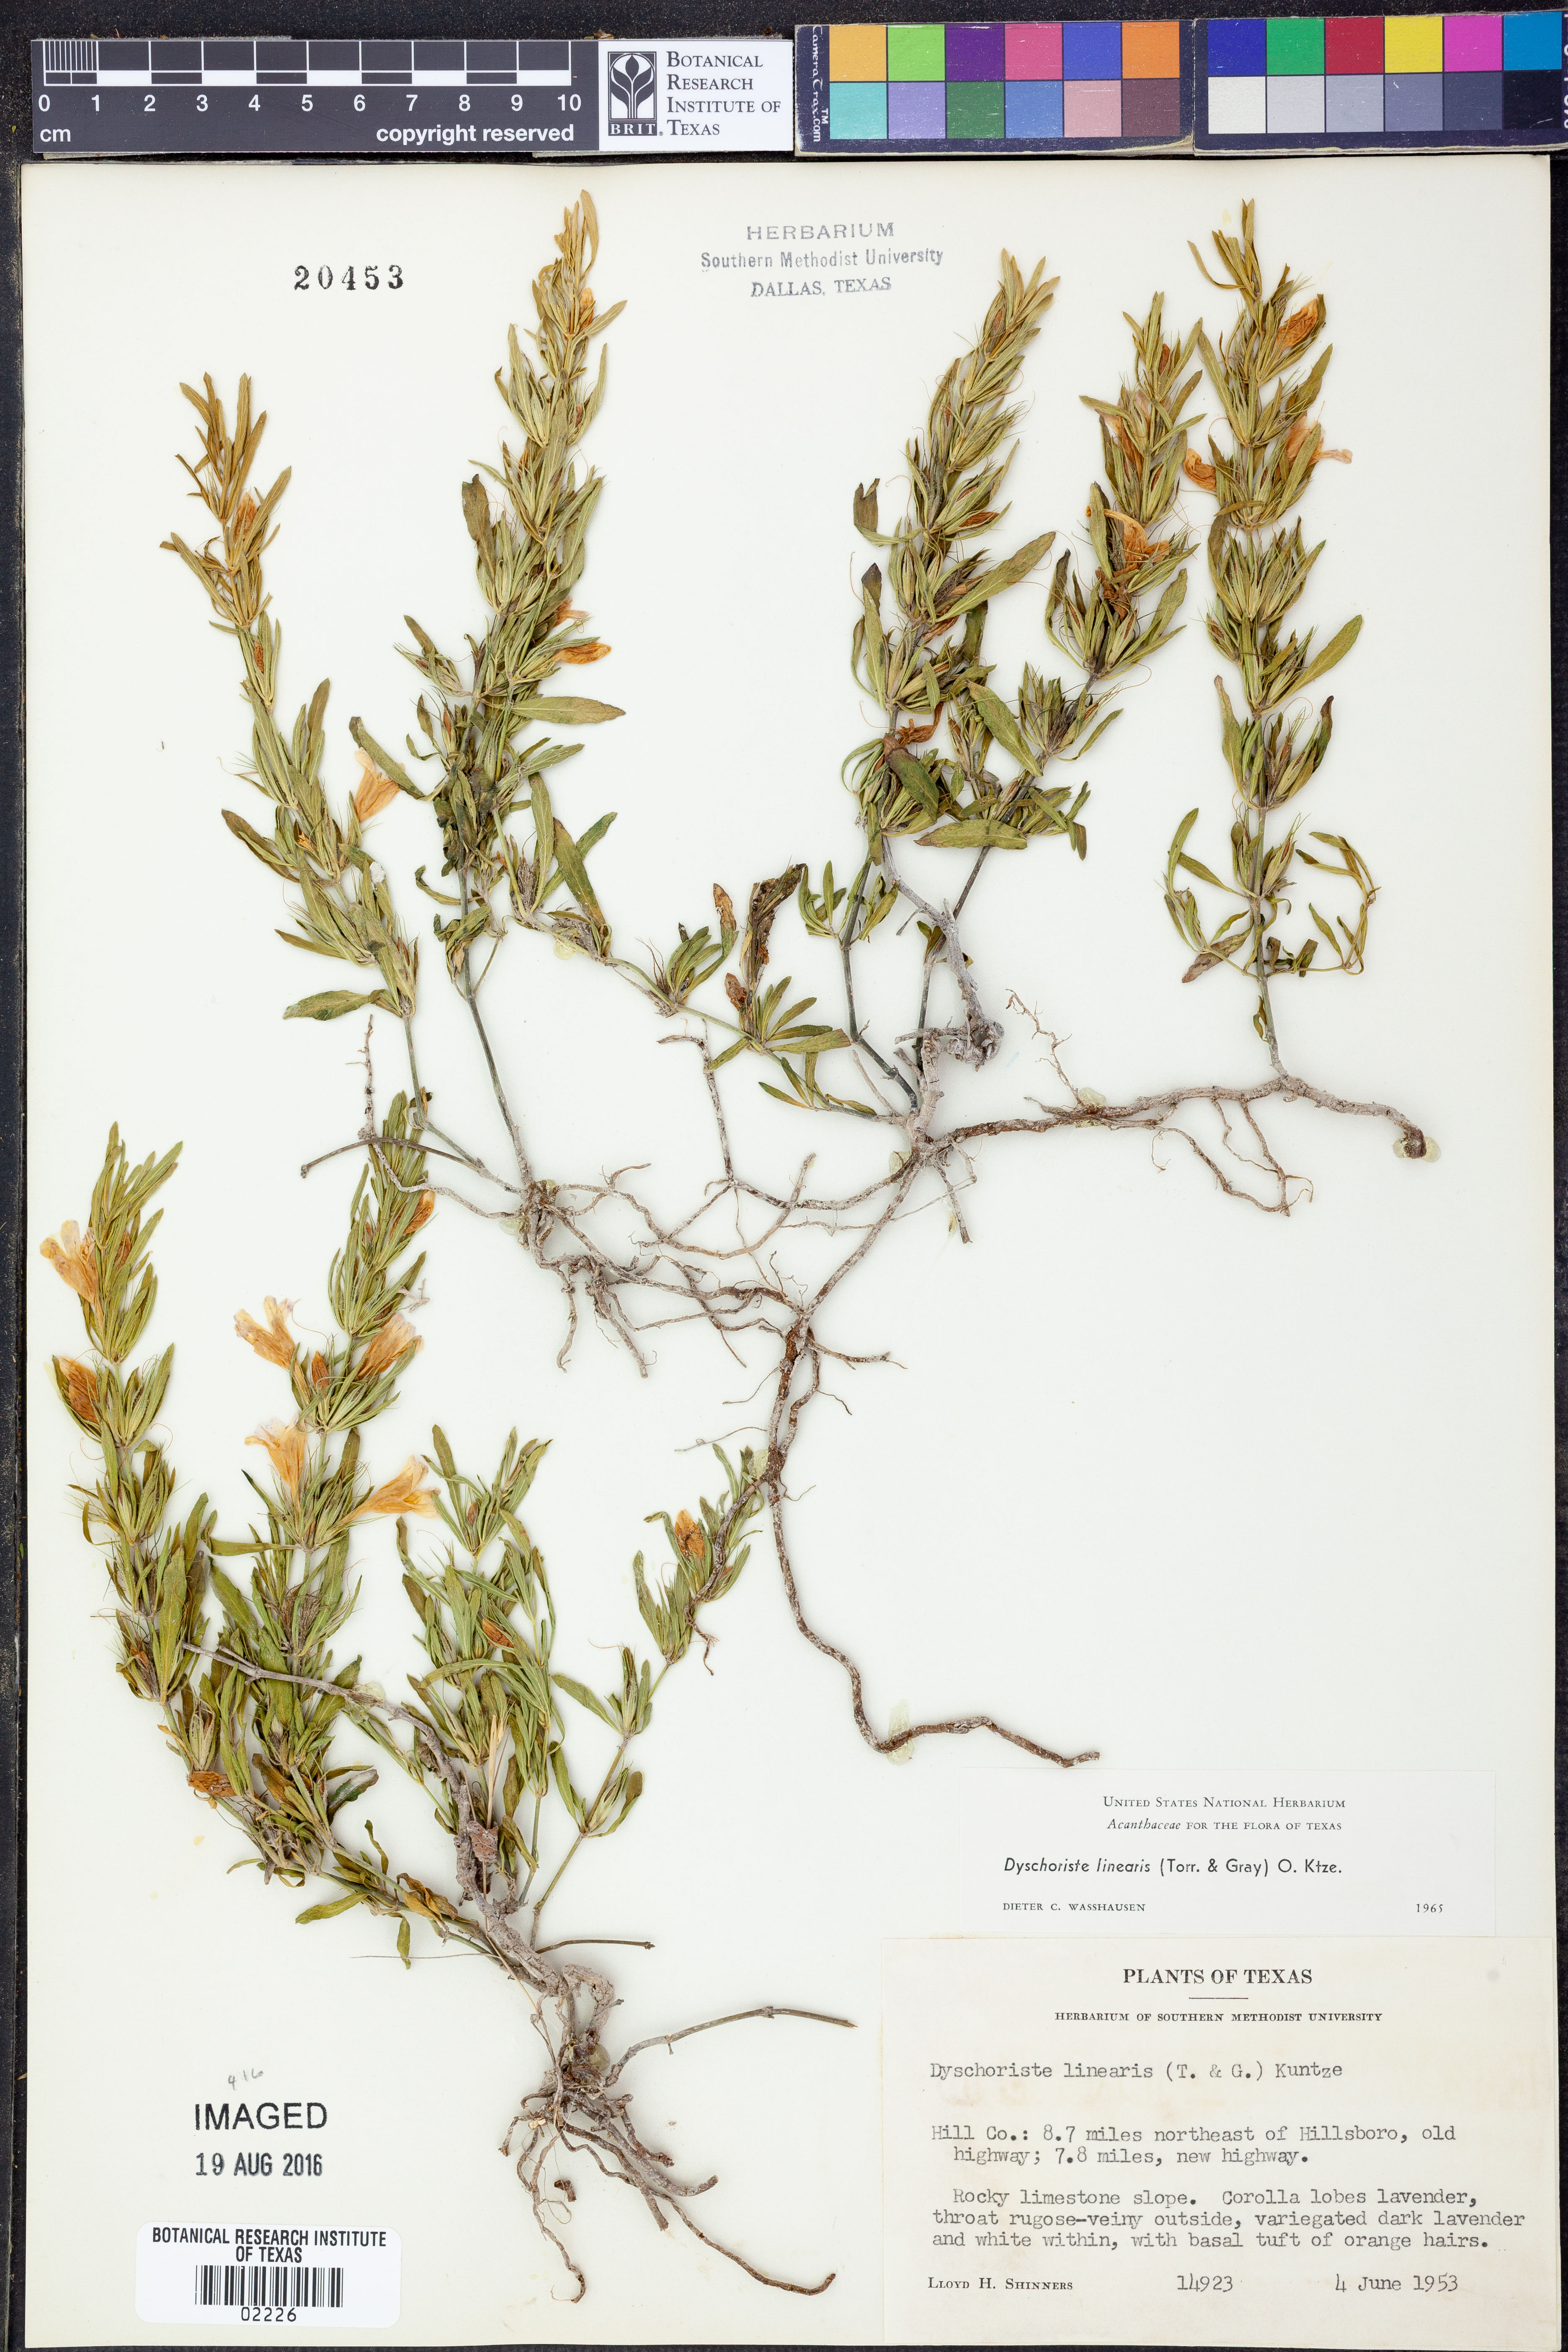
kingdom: Plantae
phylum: Tracheophyta
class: Magnoliopsida
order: Lamiales
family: Acanthaceae
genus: Dyschoriste
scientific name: Dyschoriste linearis
